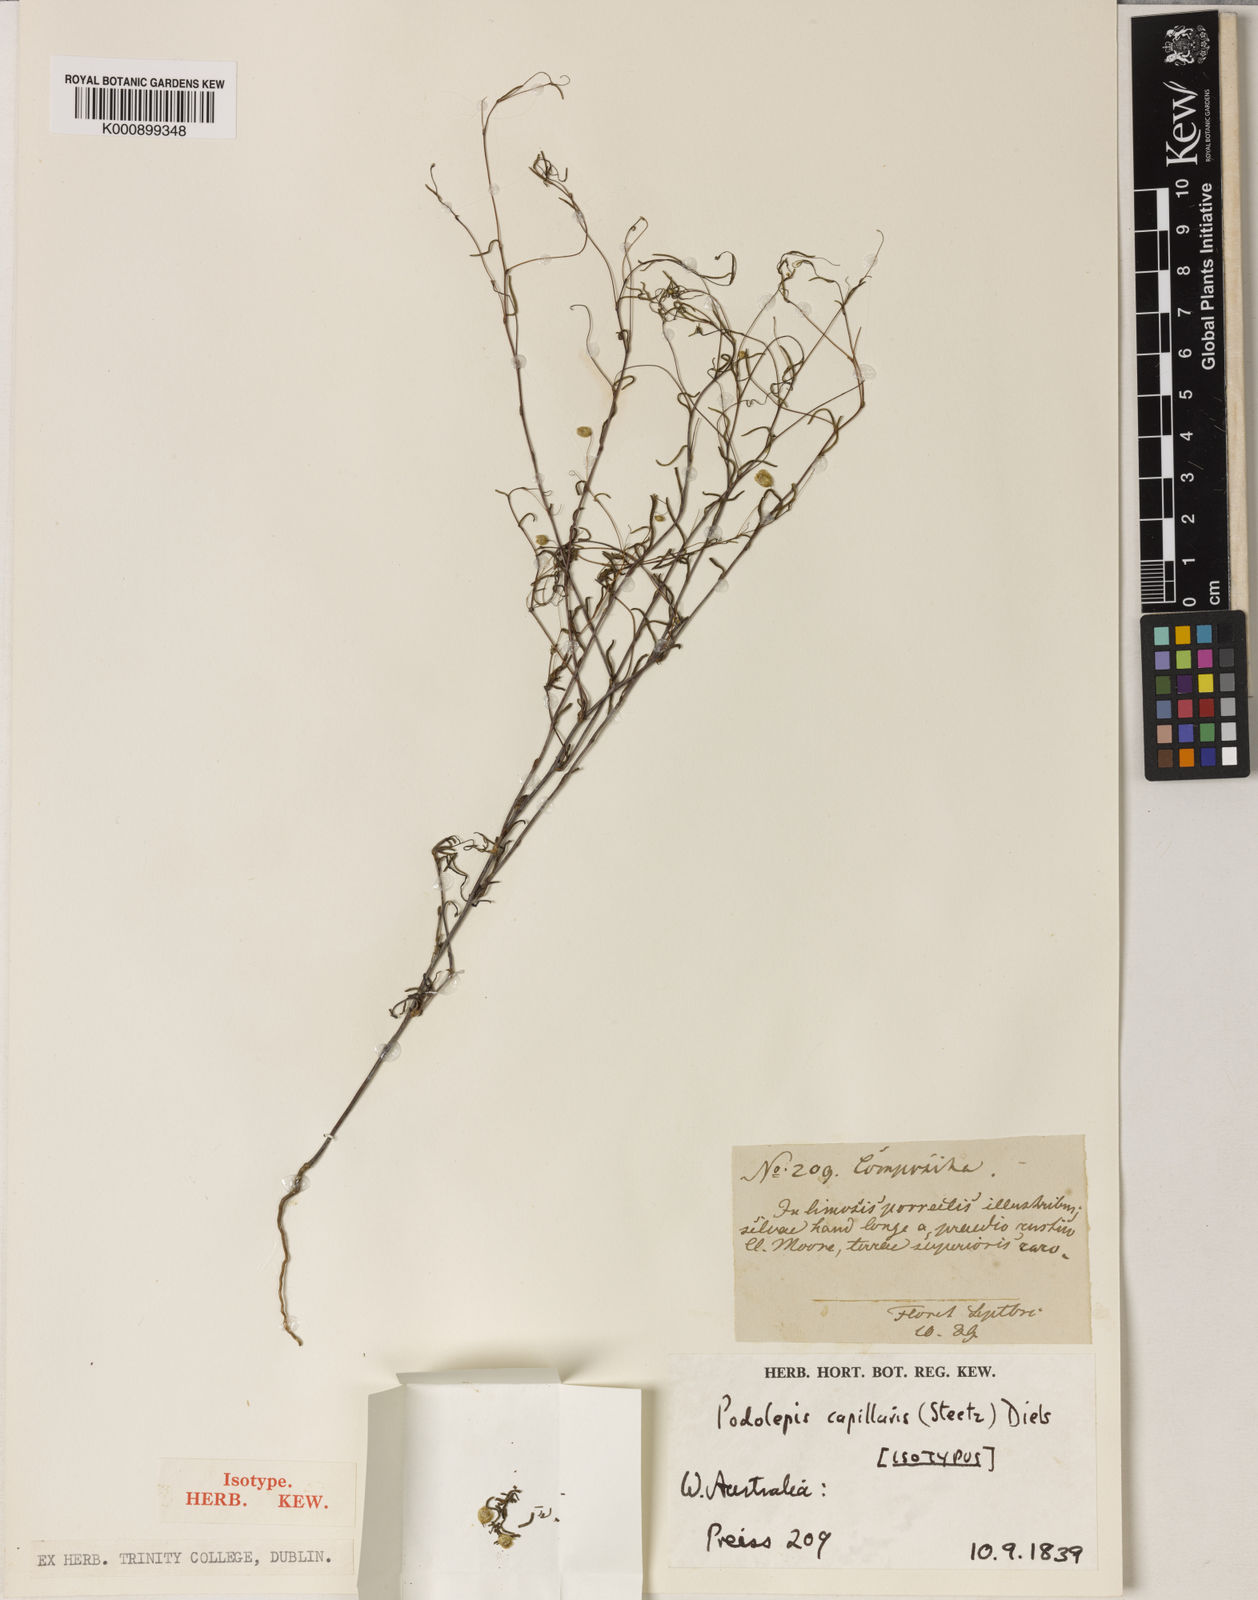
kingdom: Plantae
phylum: Tracheophyta
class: Magnoliopsida
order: Asterales
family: Asteraceae
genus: Siemssenia
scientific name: Siemssenia capillaris
